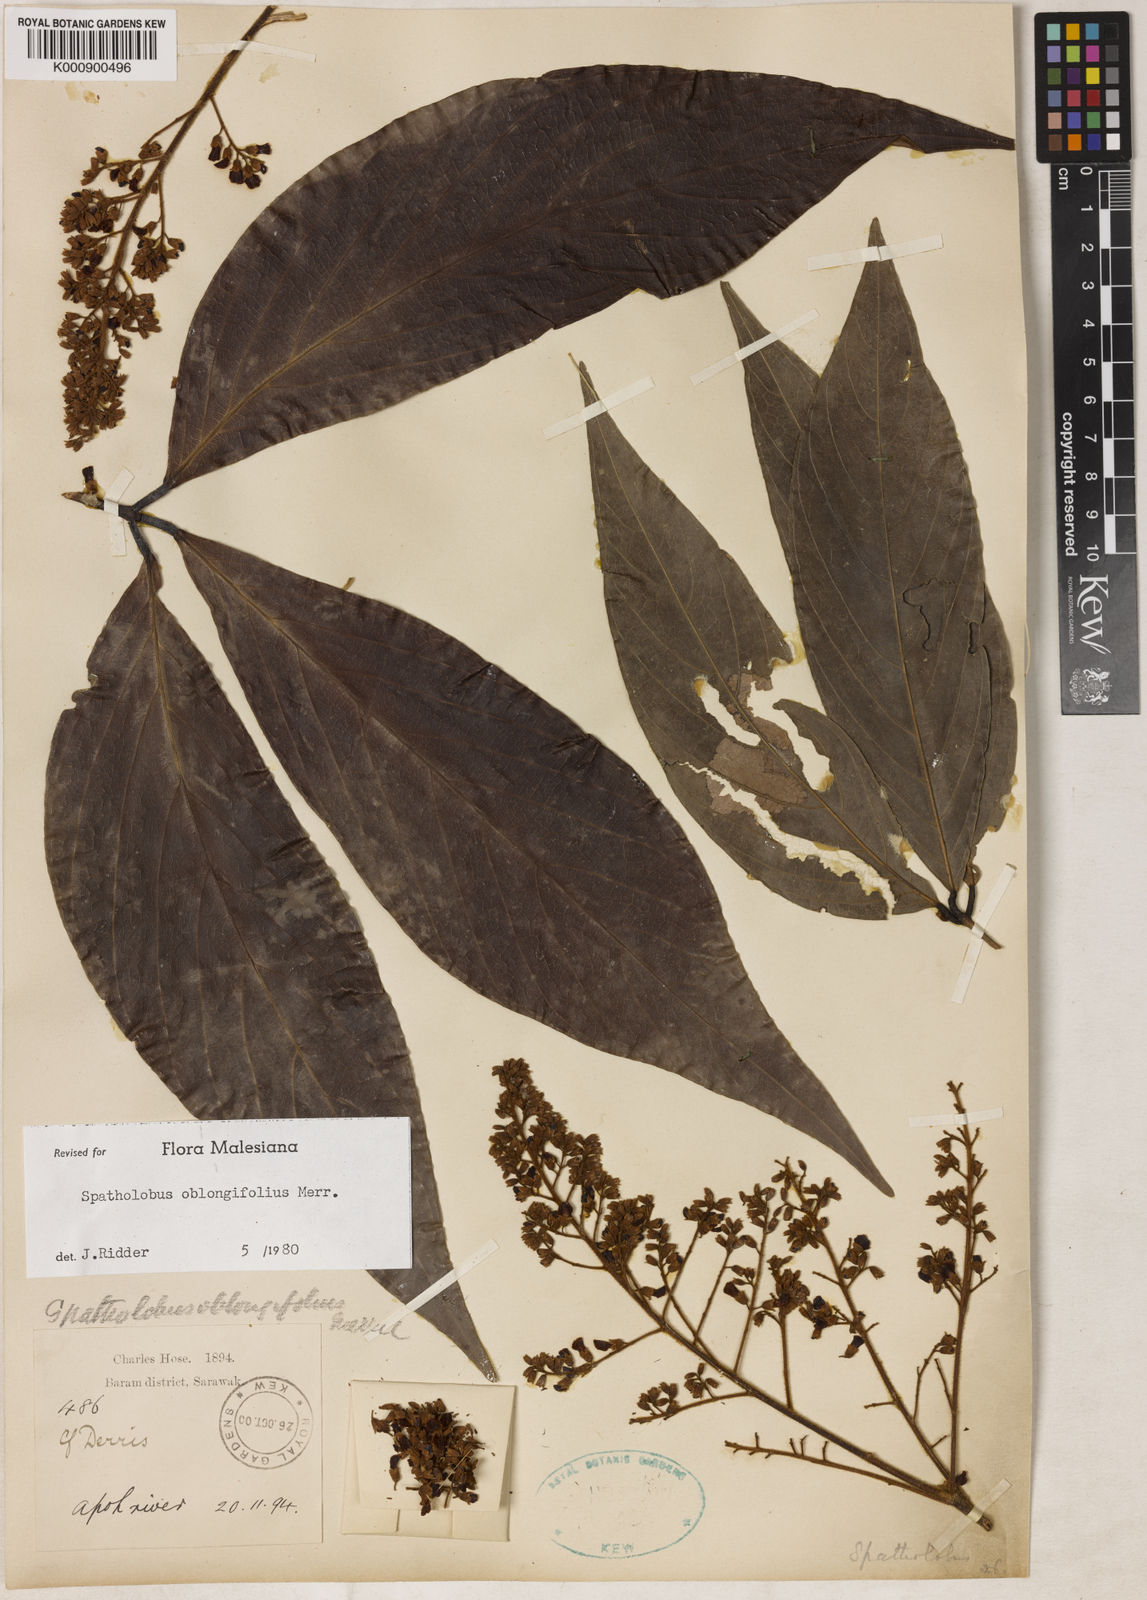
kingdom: Plantae
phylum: Tracheophyta
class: Magnoliopsida
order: Fabales
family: Fabaceae
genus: Spatholobus
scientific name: Spatholobus oblongifolius
